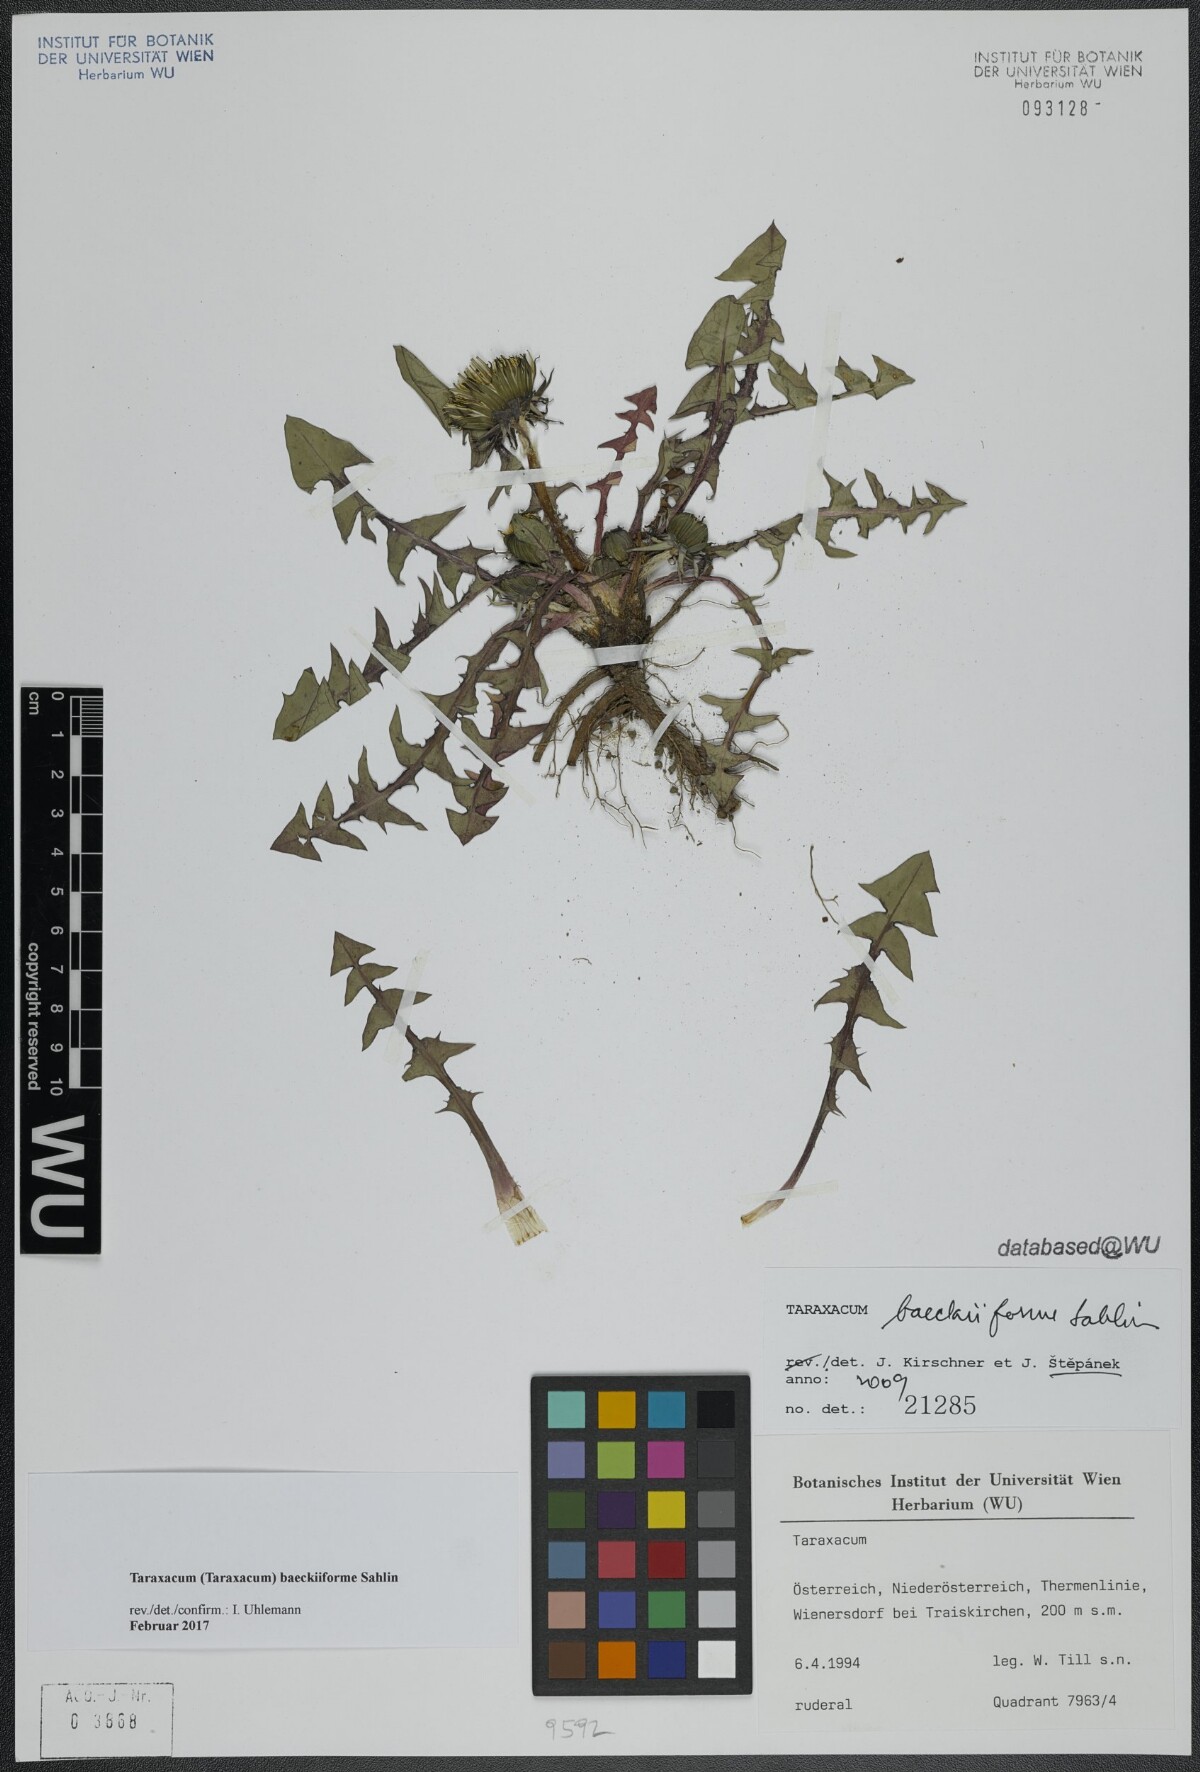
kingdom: Plantae
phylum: Tracheophyta
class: Magnoliopsida
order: Asterales
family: Asteraceae
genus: Taraxacum
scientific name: Taraxacum baeckiiforme
